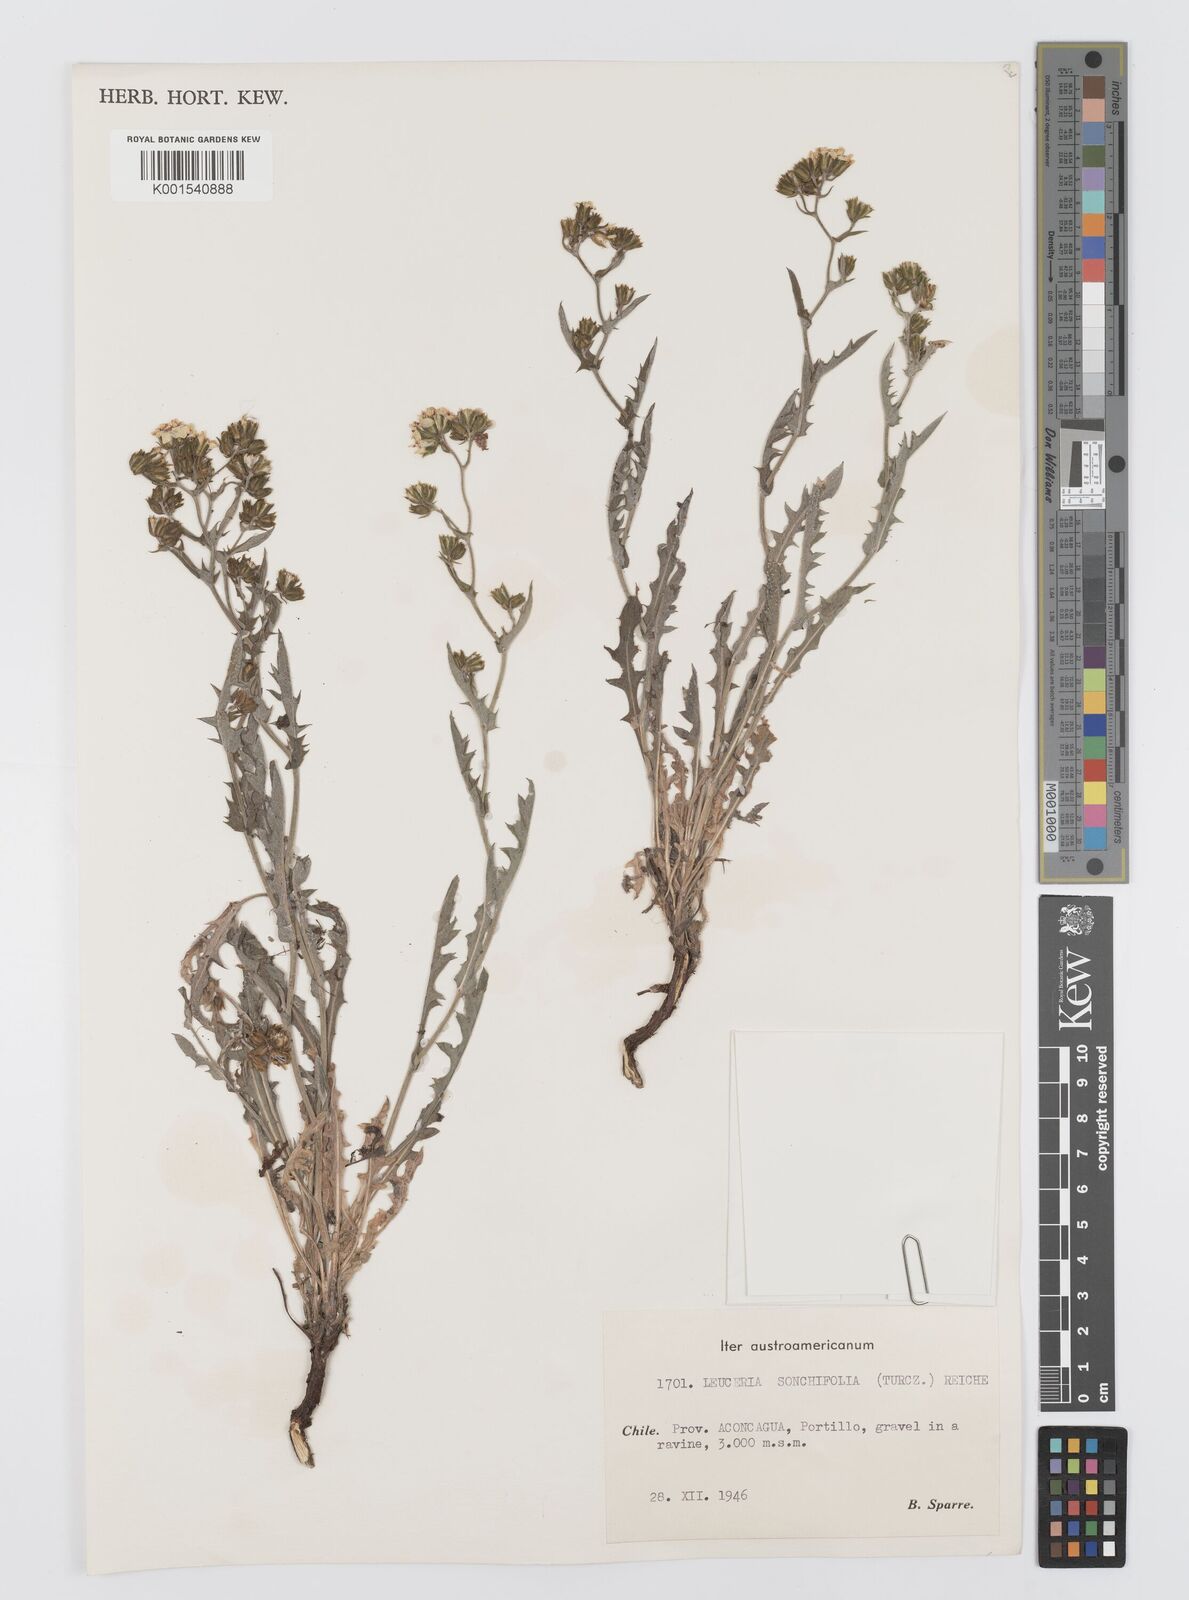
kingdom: Plantae
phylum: Tracheophyta
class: Magnoliopsida
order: Asterales
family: Asteraceae
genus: Leucheria
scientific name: Leucheria floribunda
